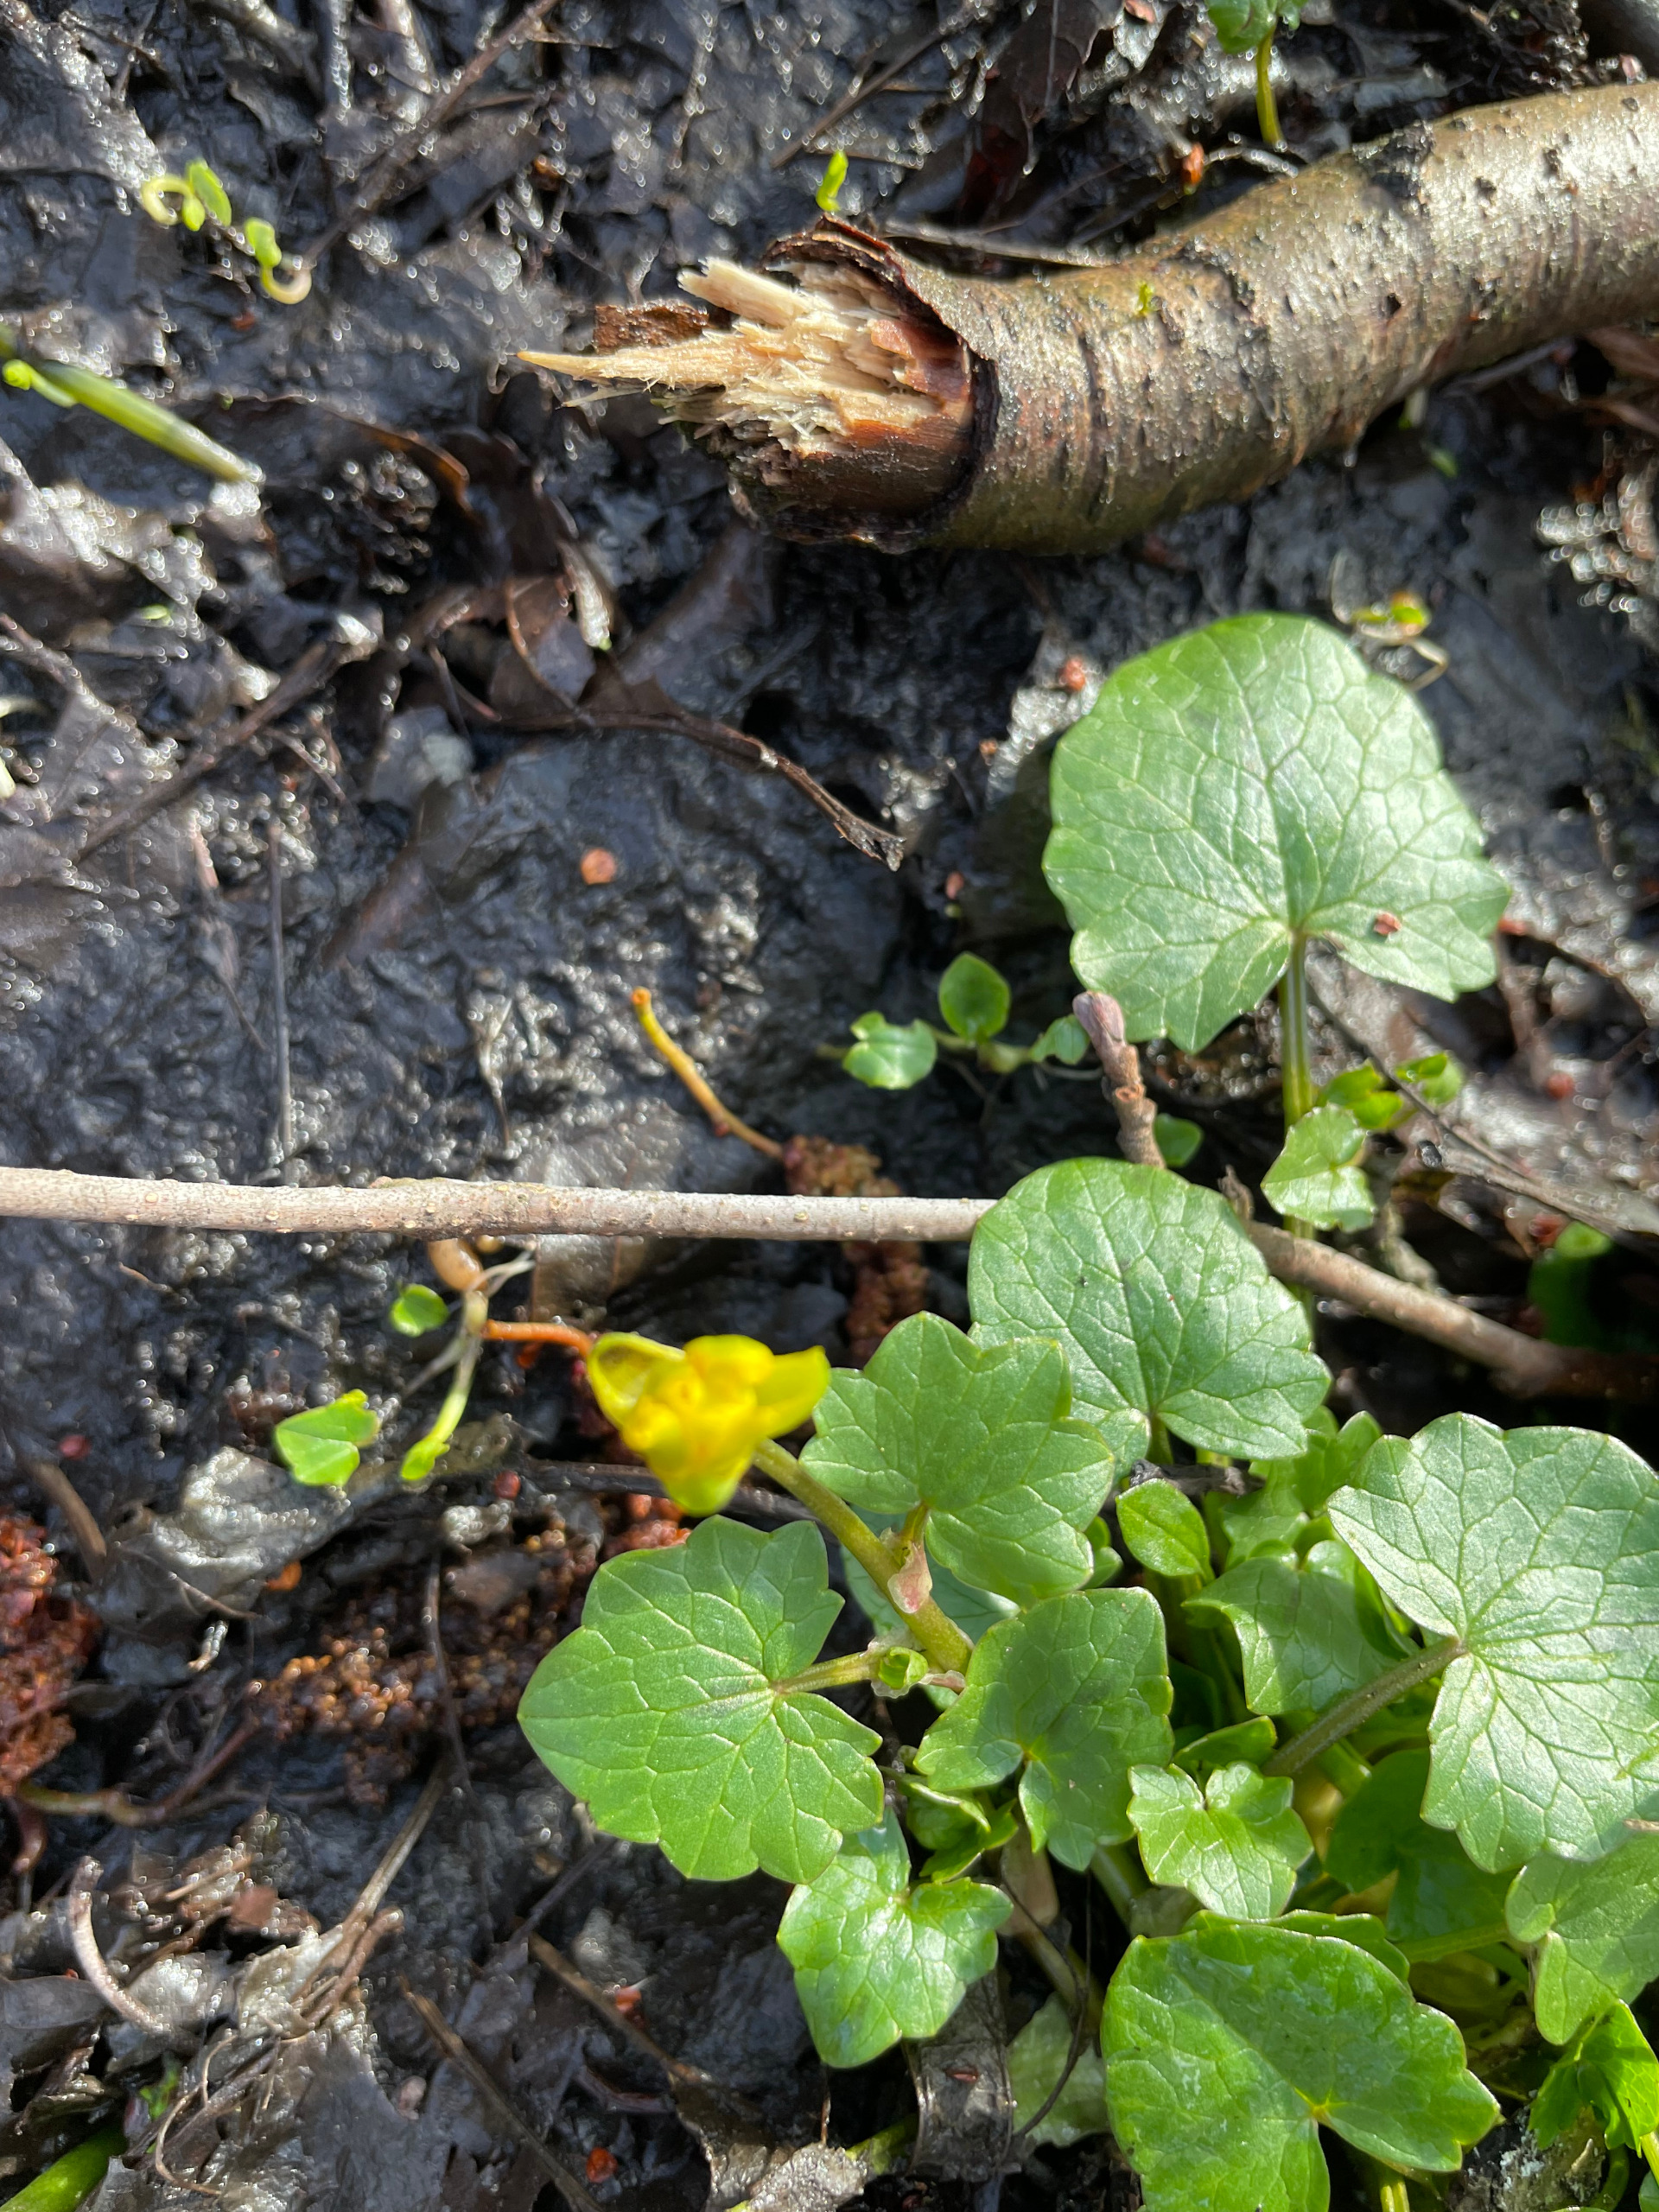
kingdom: Plantae
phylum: Tracheophyta
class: Magnoliopsida
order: Ranunculales
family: Ranunculaceae
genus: Ficaria
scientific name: Ficaria verna
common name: Vorterod
